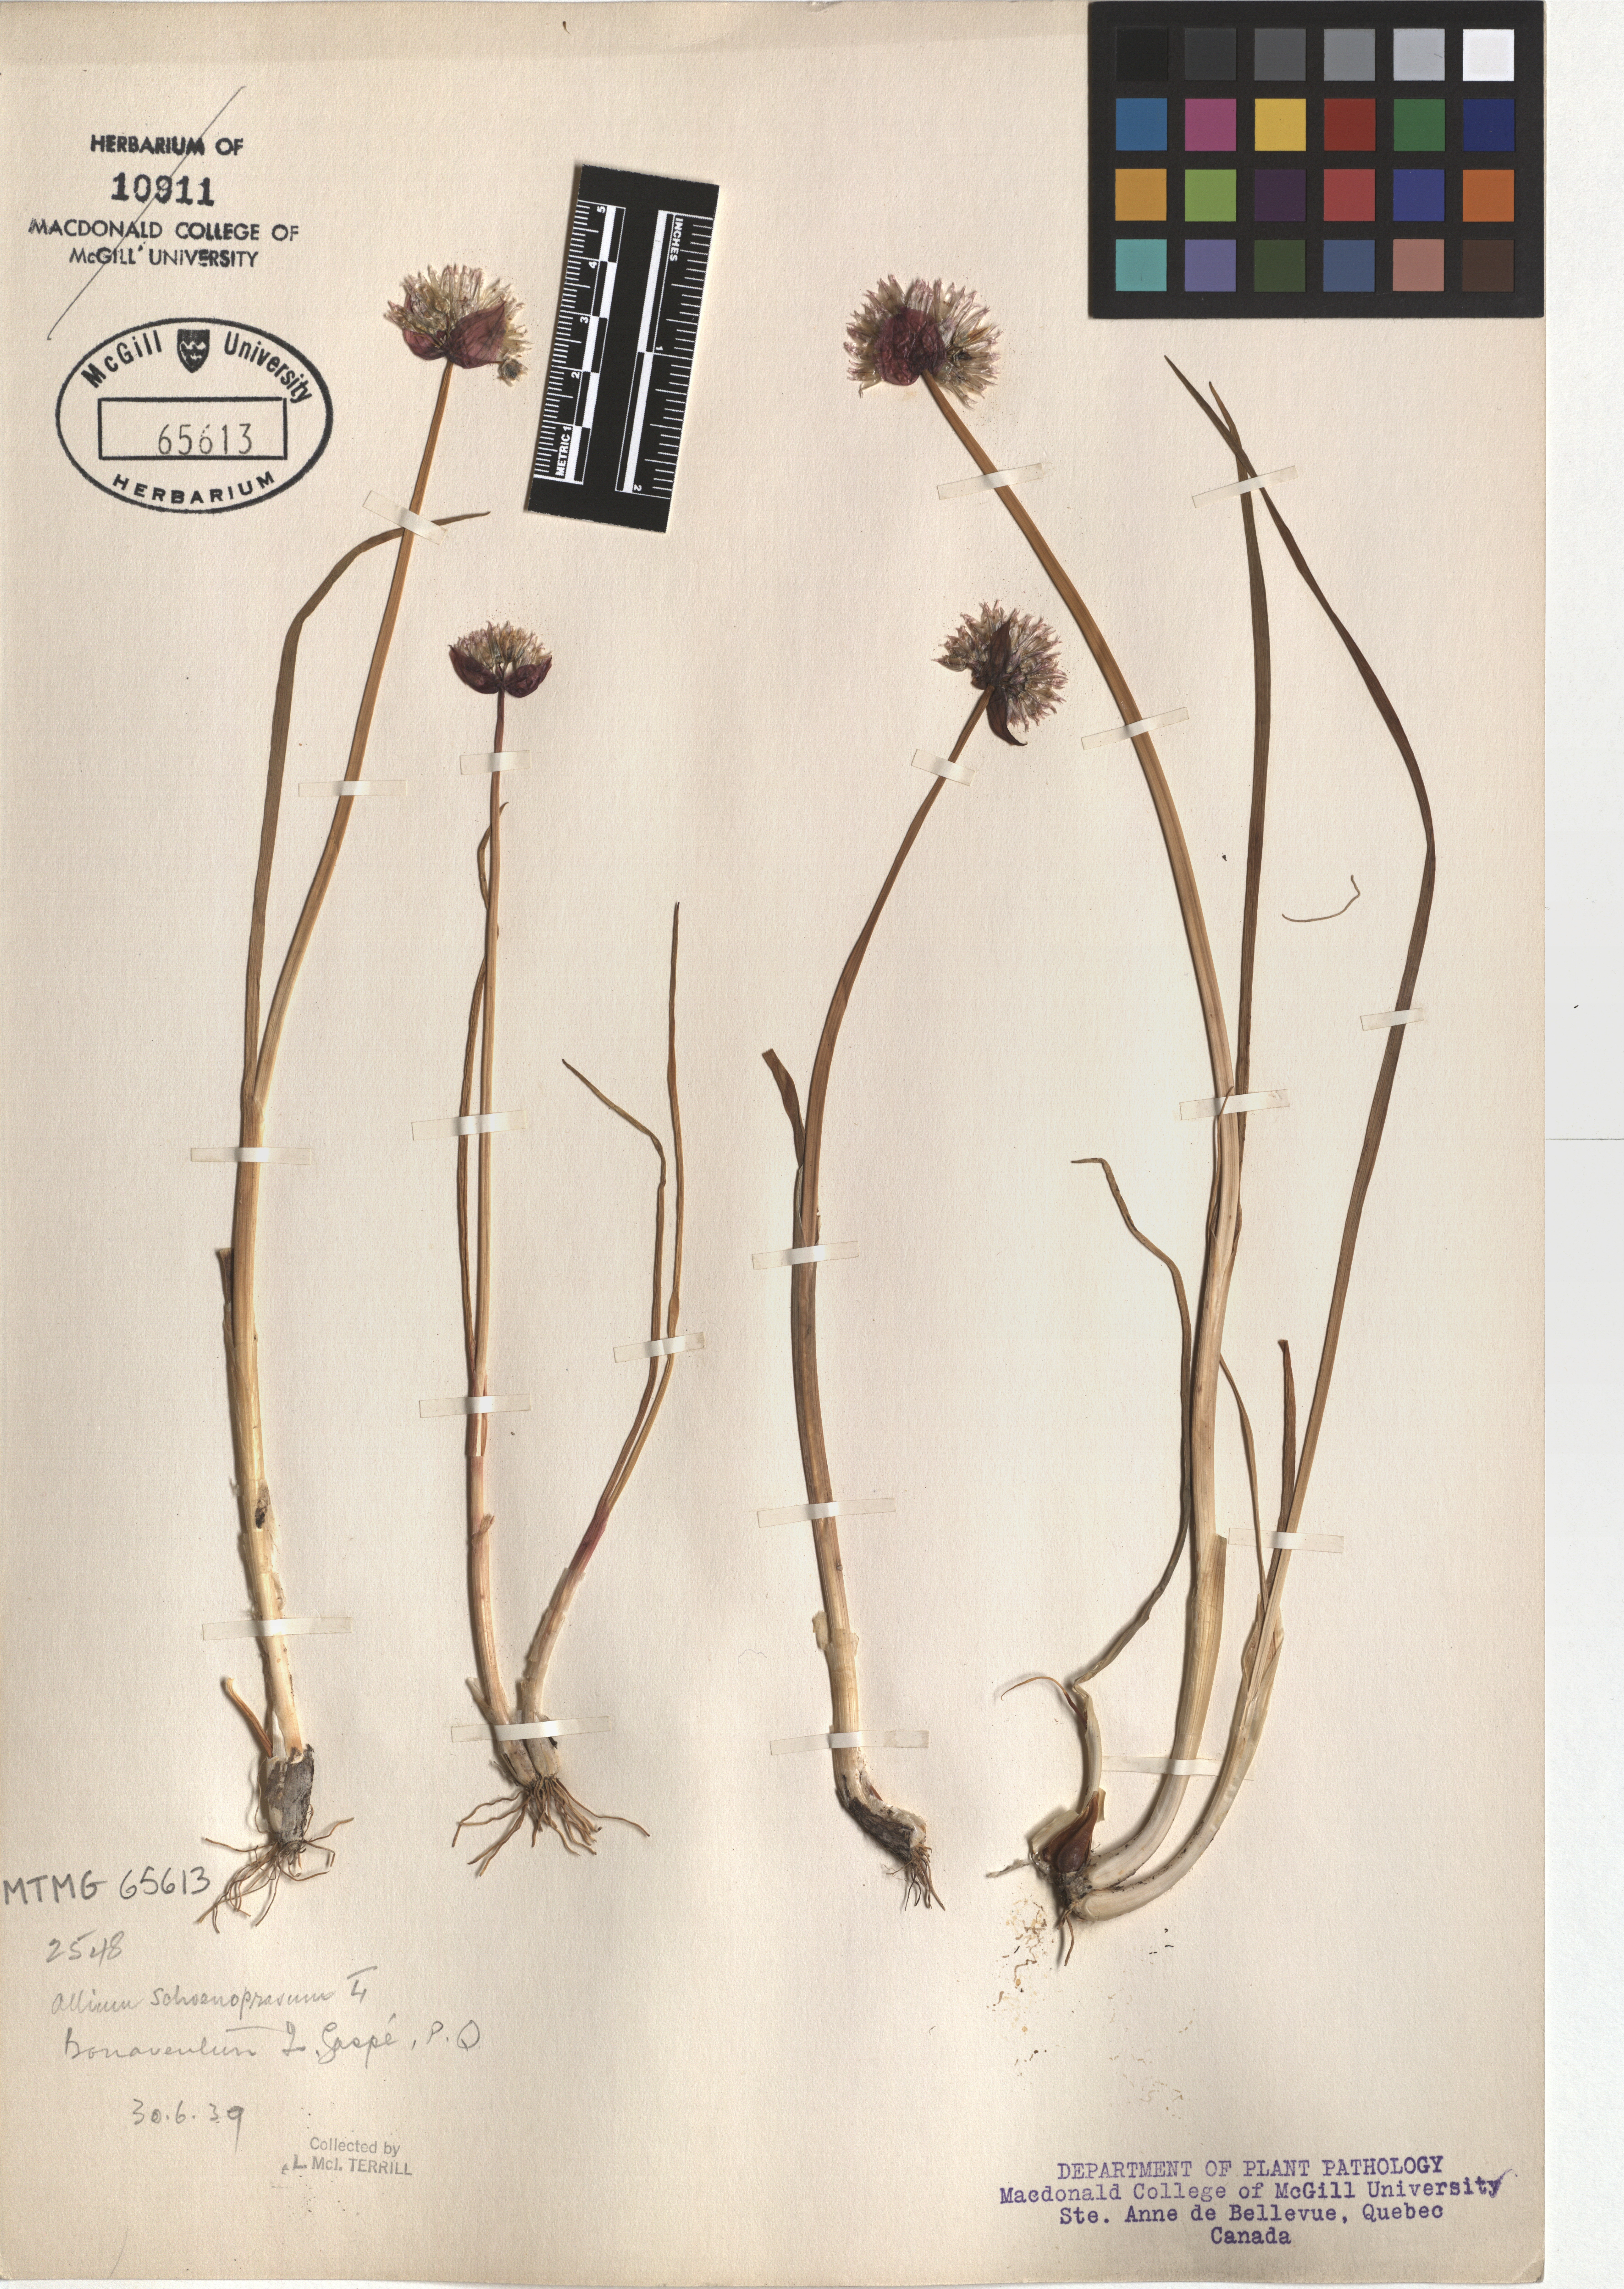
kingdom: Plantae
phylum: Tracheophyta
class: Liliopsida
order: Asparagales
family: Amaryllidaceae
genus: Allium
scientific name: Allium schoenoprasum
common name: Chives
